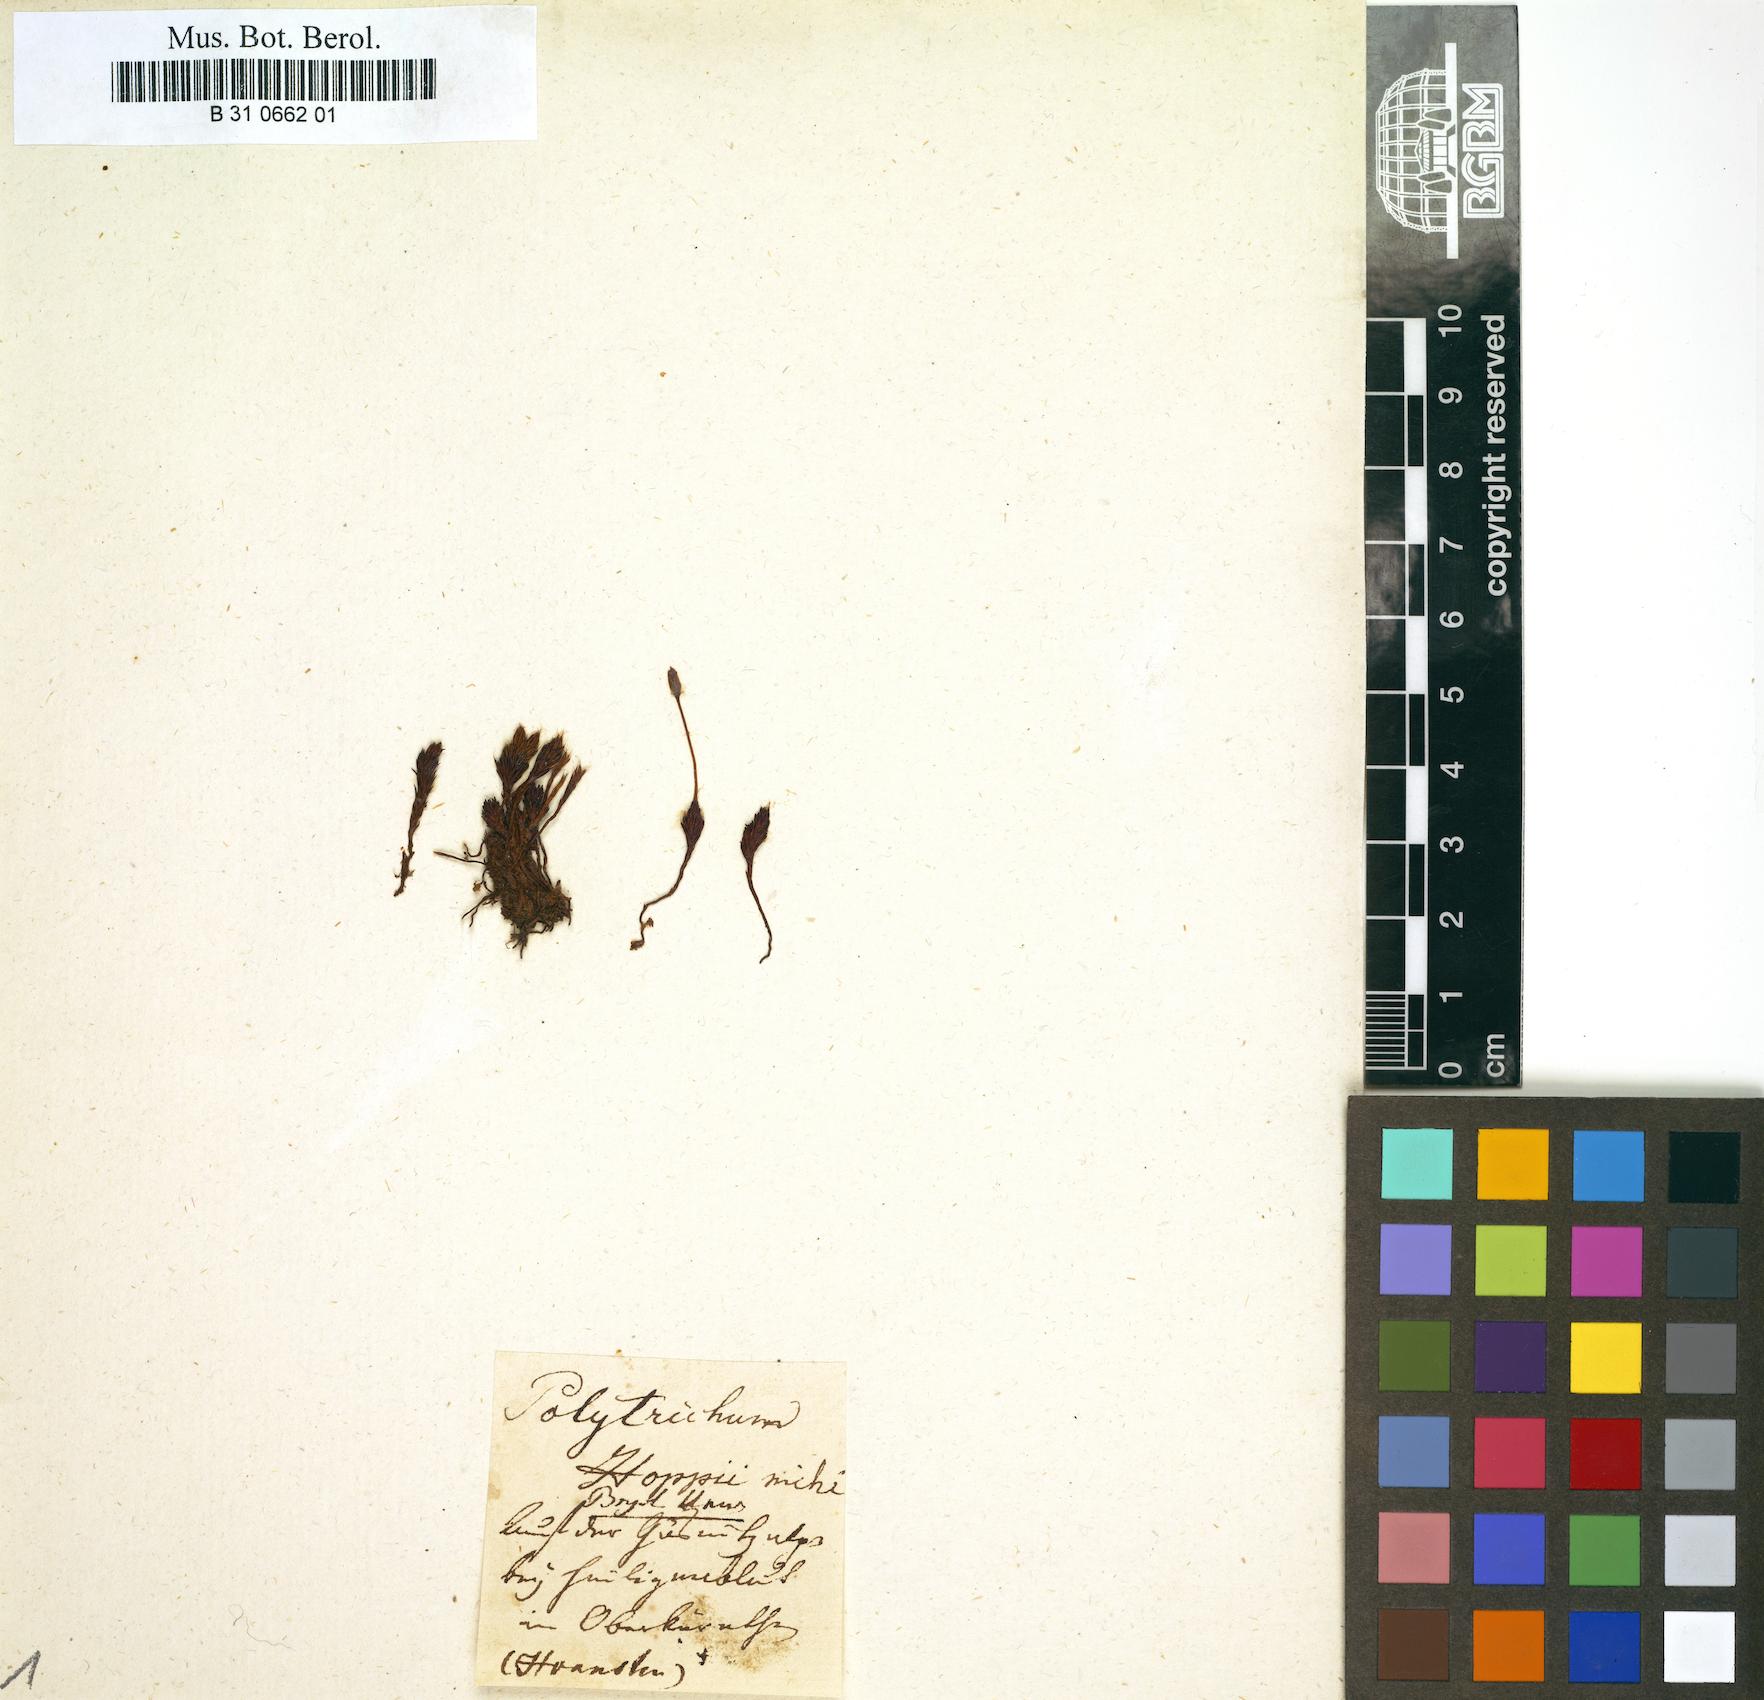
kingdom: Plantae
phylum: Bryophyta
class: Polytrichopsida
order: Polytrichales
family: Polytrichaceae
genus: Polytrichum
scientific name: Polytrichum piliferum
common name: Bristly haircap
